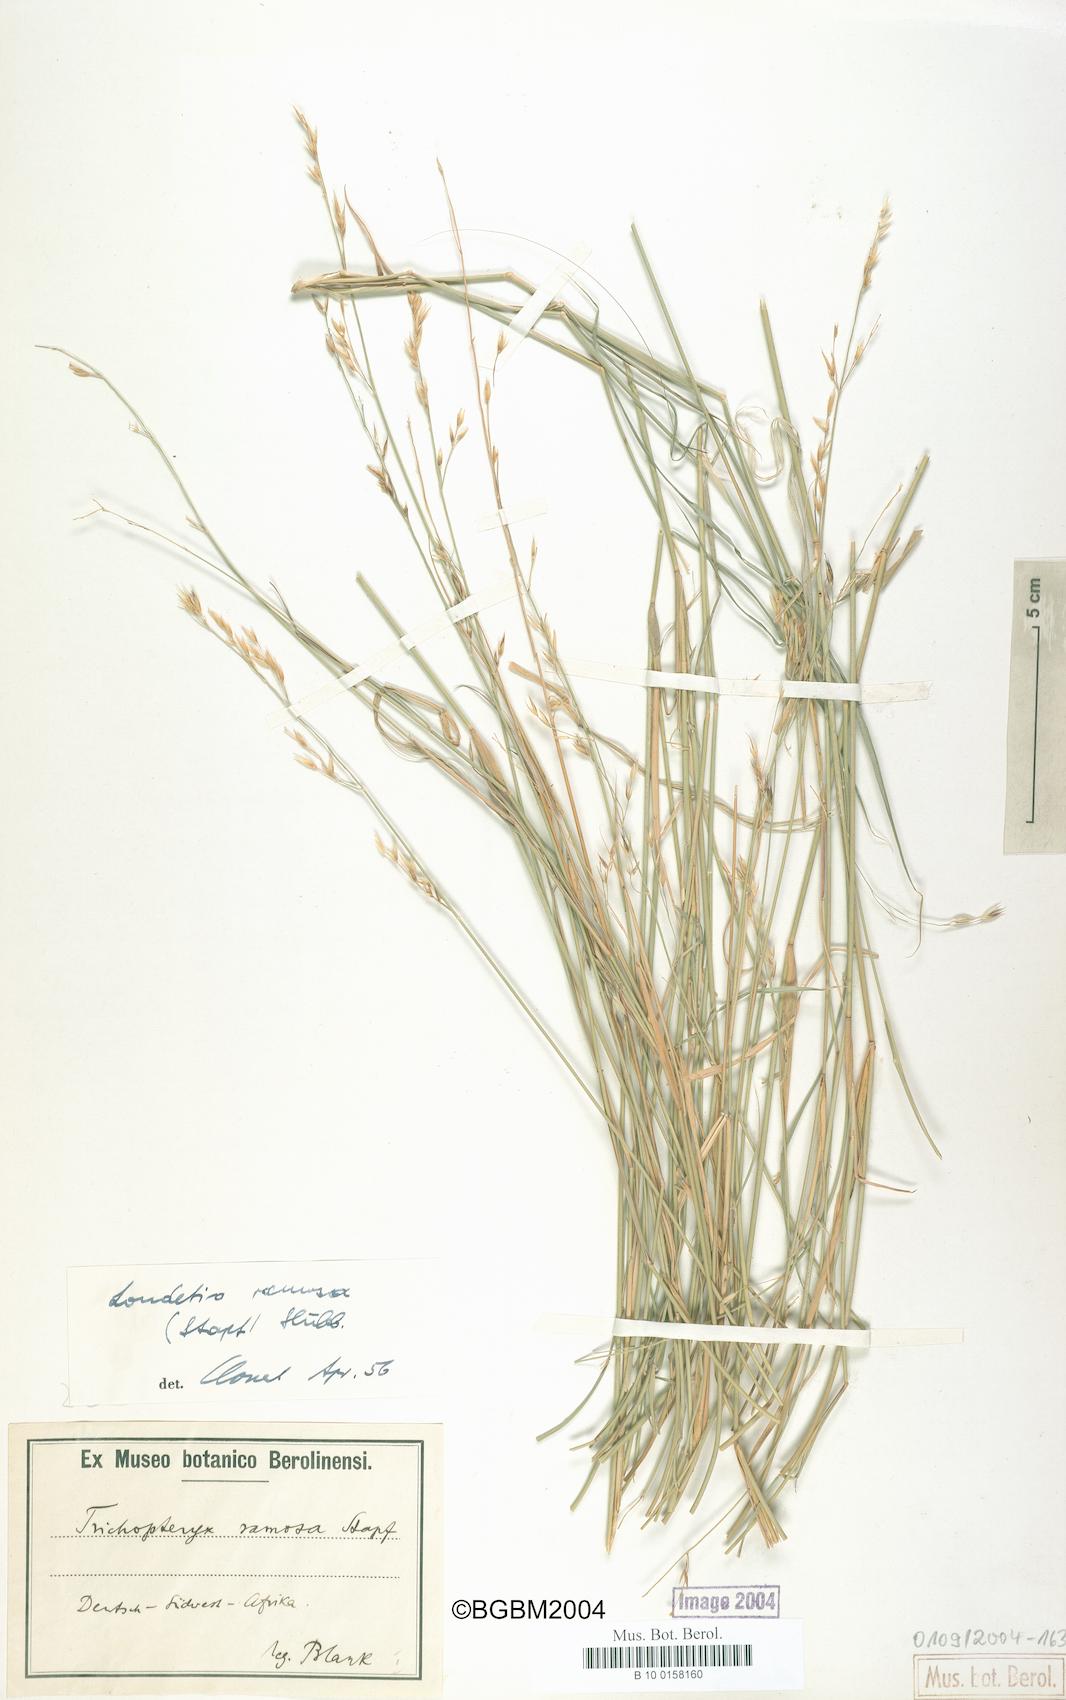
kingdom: Plantae
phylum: Tracheophyta
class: Liliopsida
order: Poales
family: Poaceae
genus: Danthoniopsis
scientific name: Danthoniopsis ramosa
